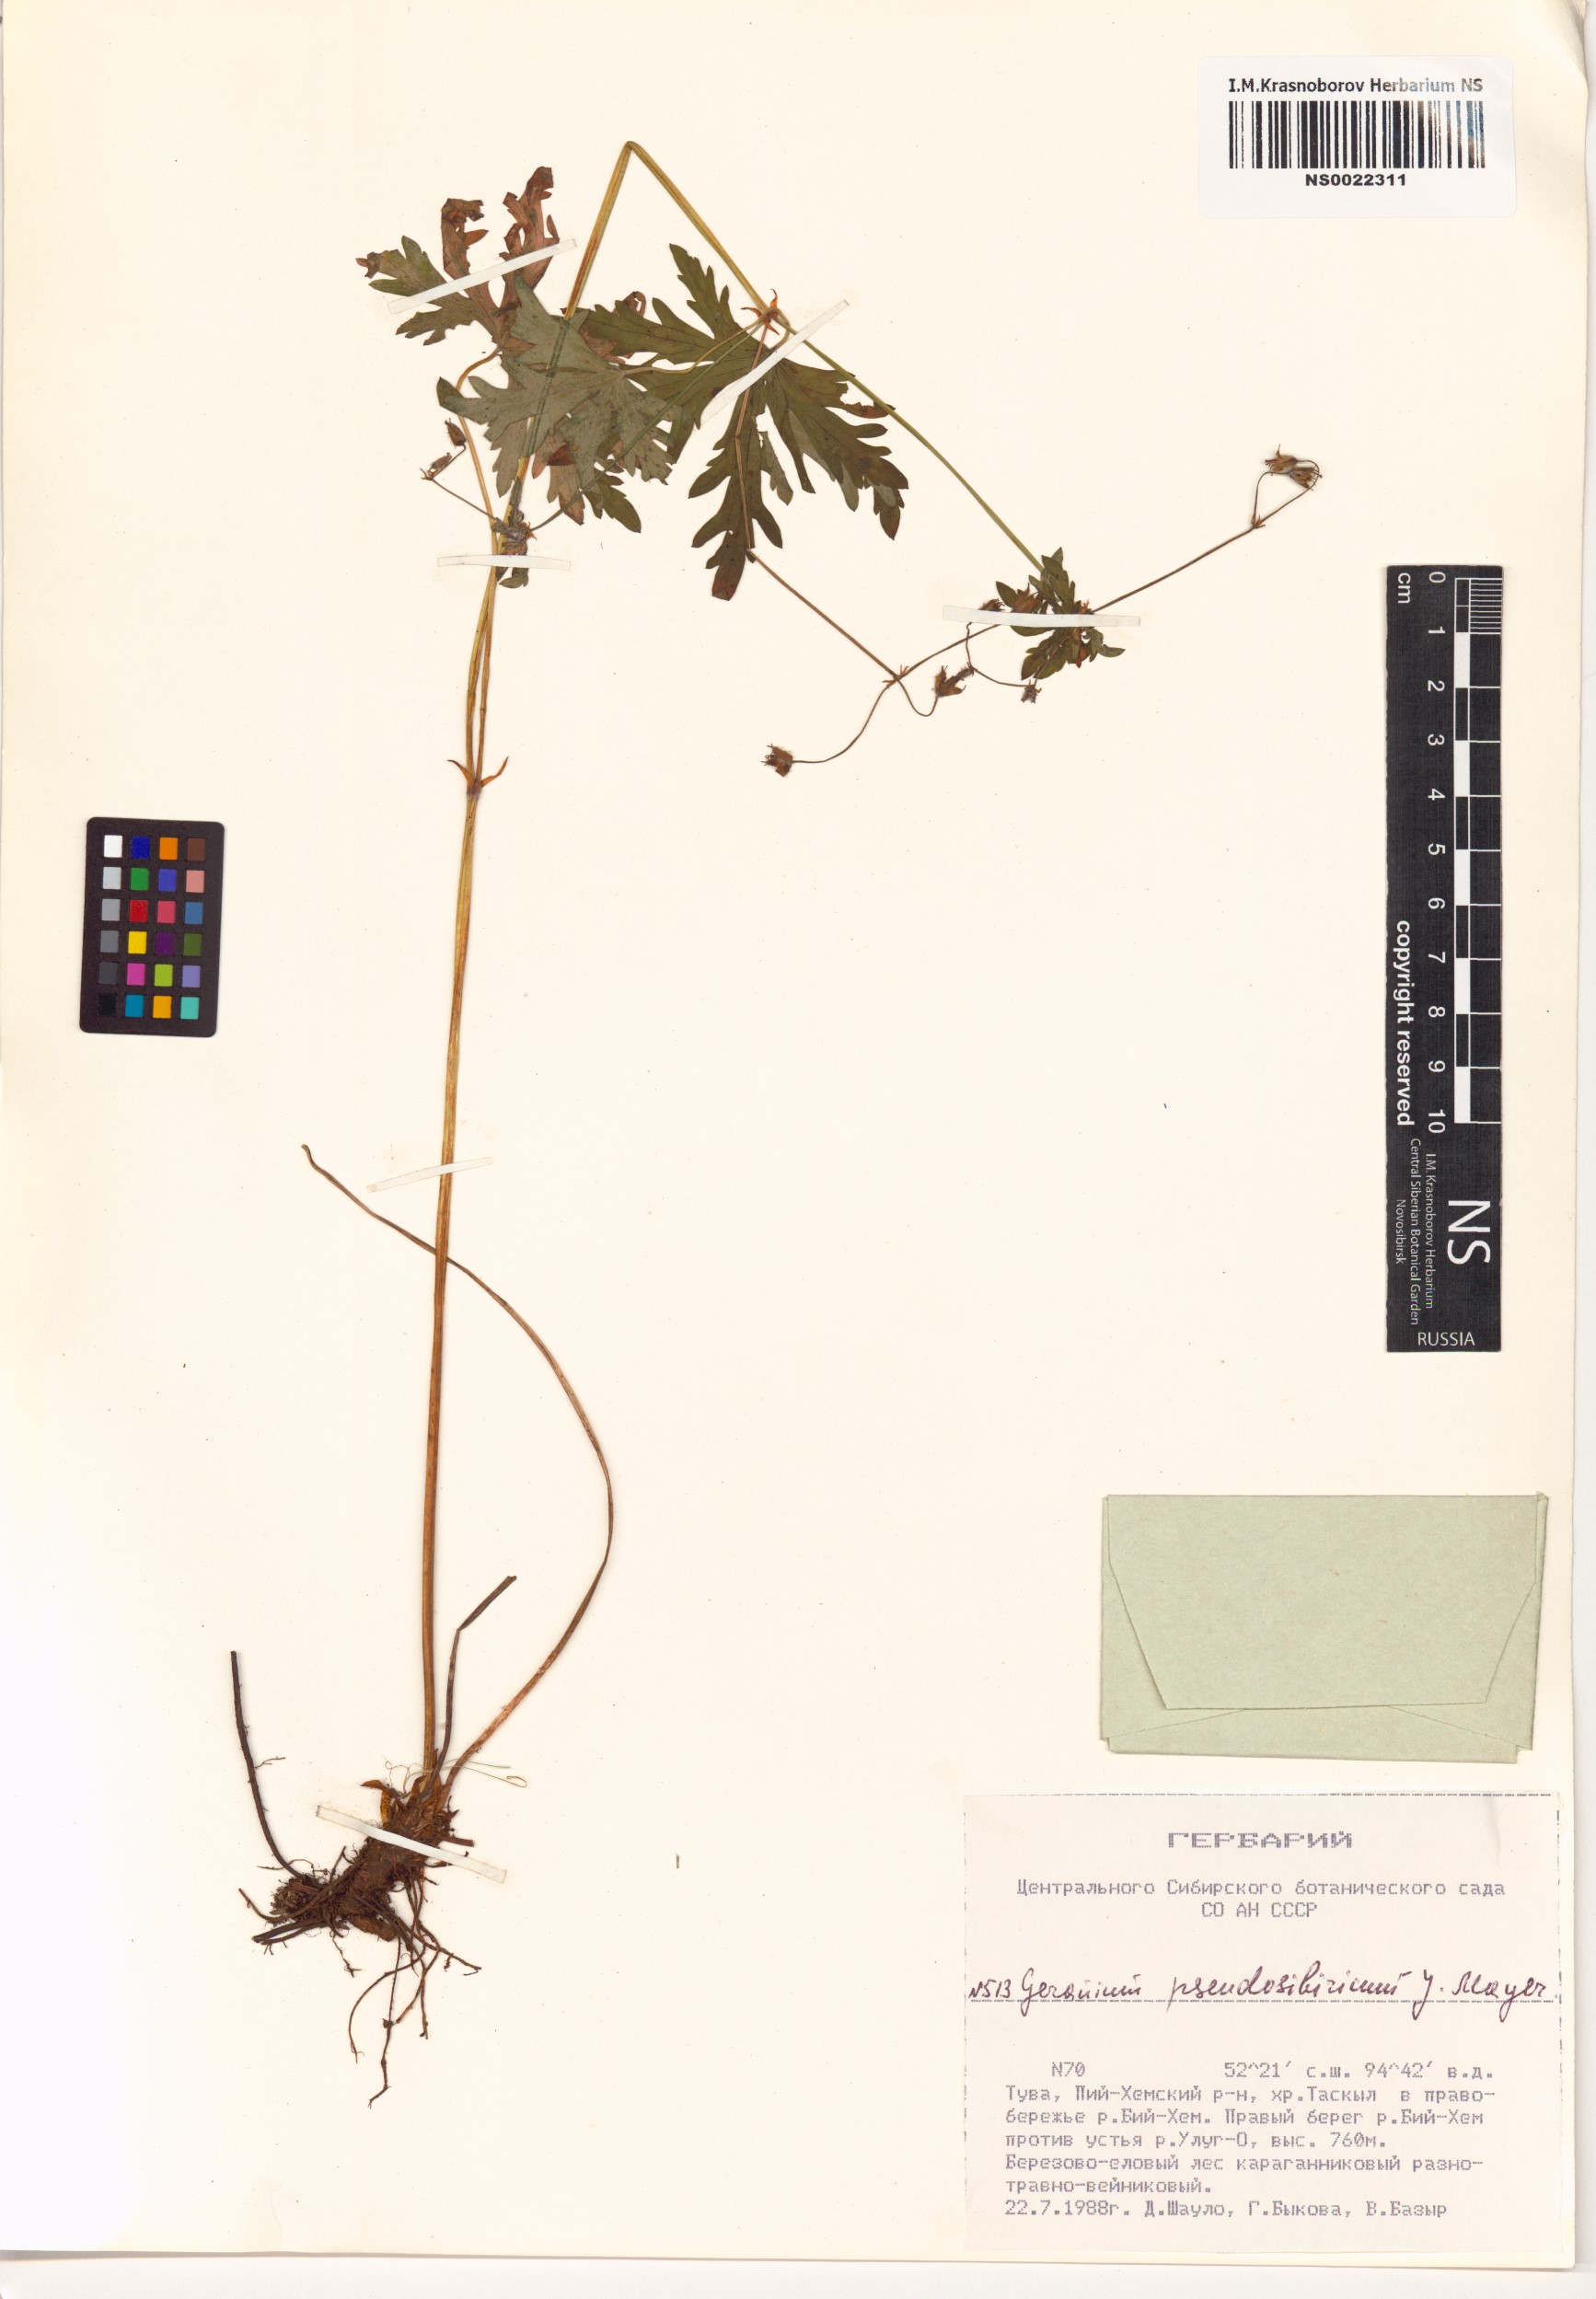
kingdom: Plantae
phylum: Tracheophyta
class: Magnoliopsida
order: Geraniales
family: Geraniaceae
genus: Geranium
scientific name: Geranium pseudosibiricum
